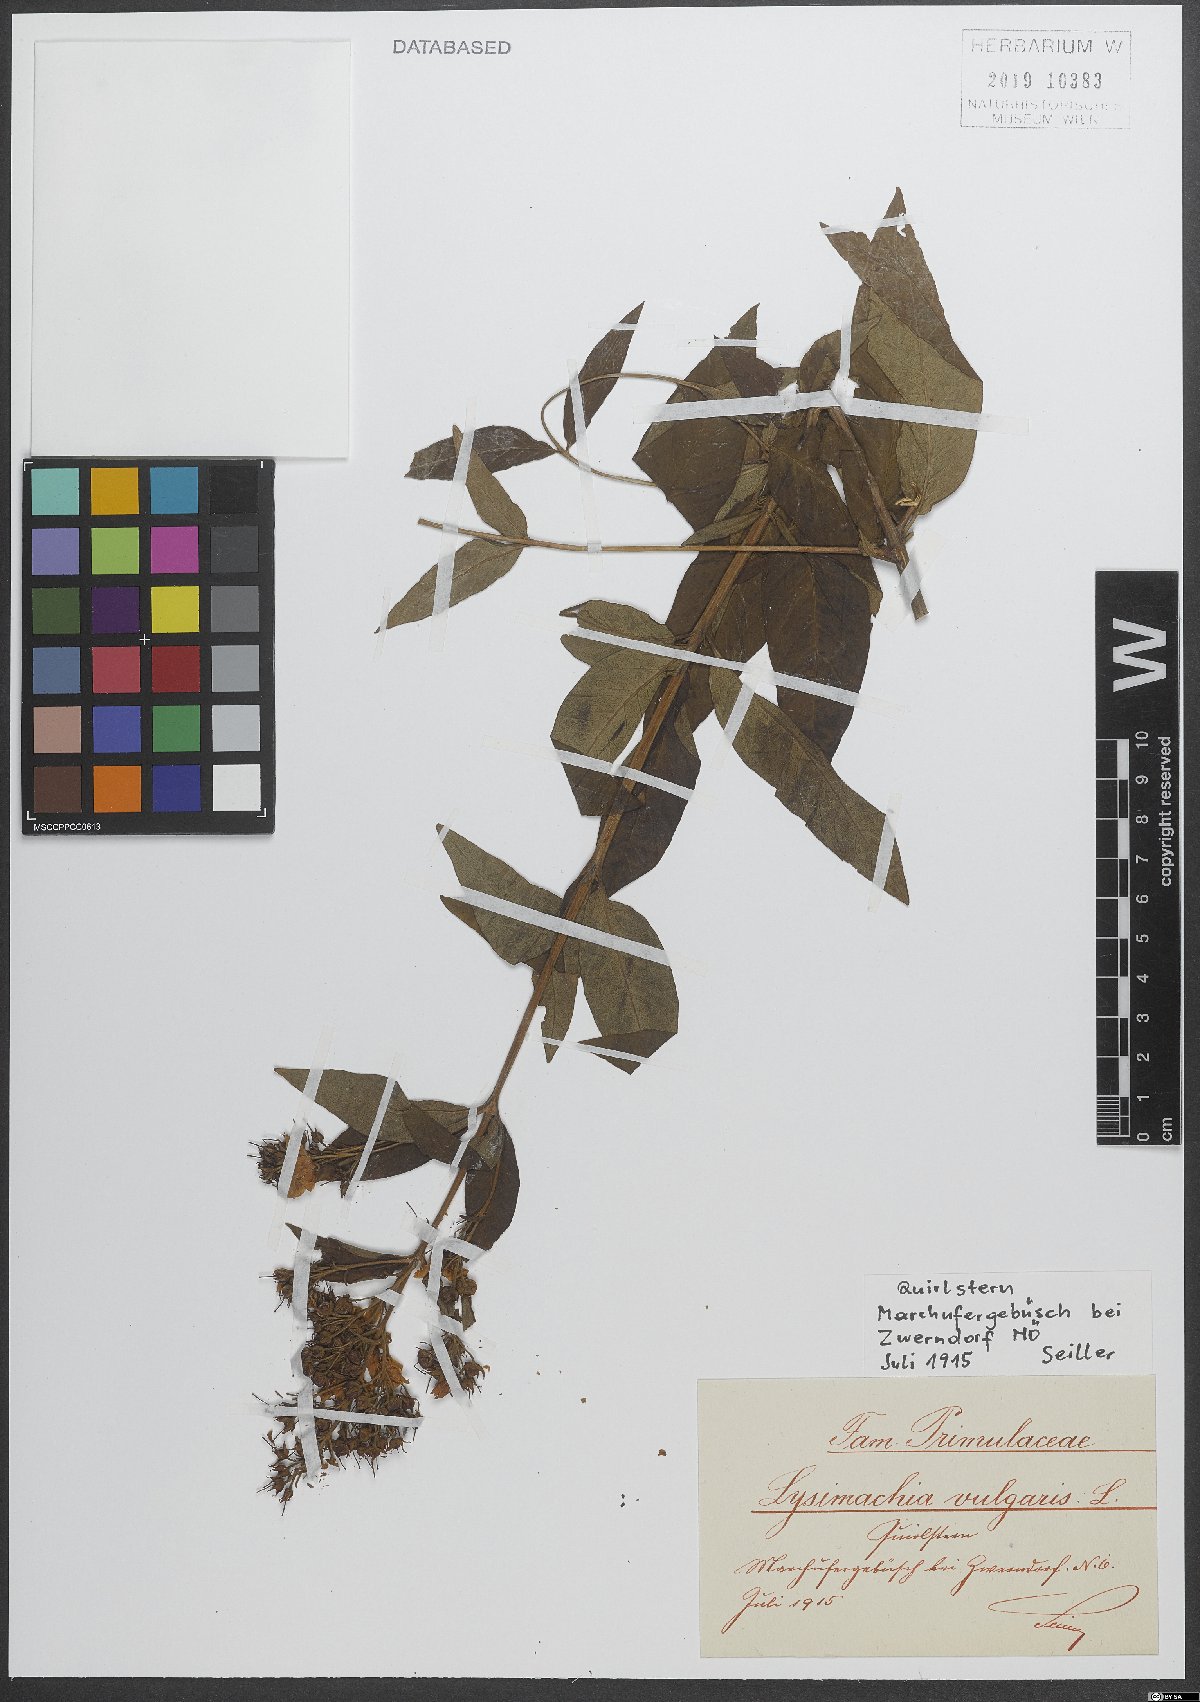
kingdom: Plantae
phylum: Tracheophyta
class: Magnoliopsida
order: Ericales
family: Primulaceae
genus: Lysimachia
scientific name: Lysimachia vulgaris
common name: Yellow loosestrife
